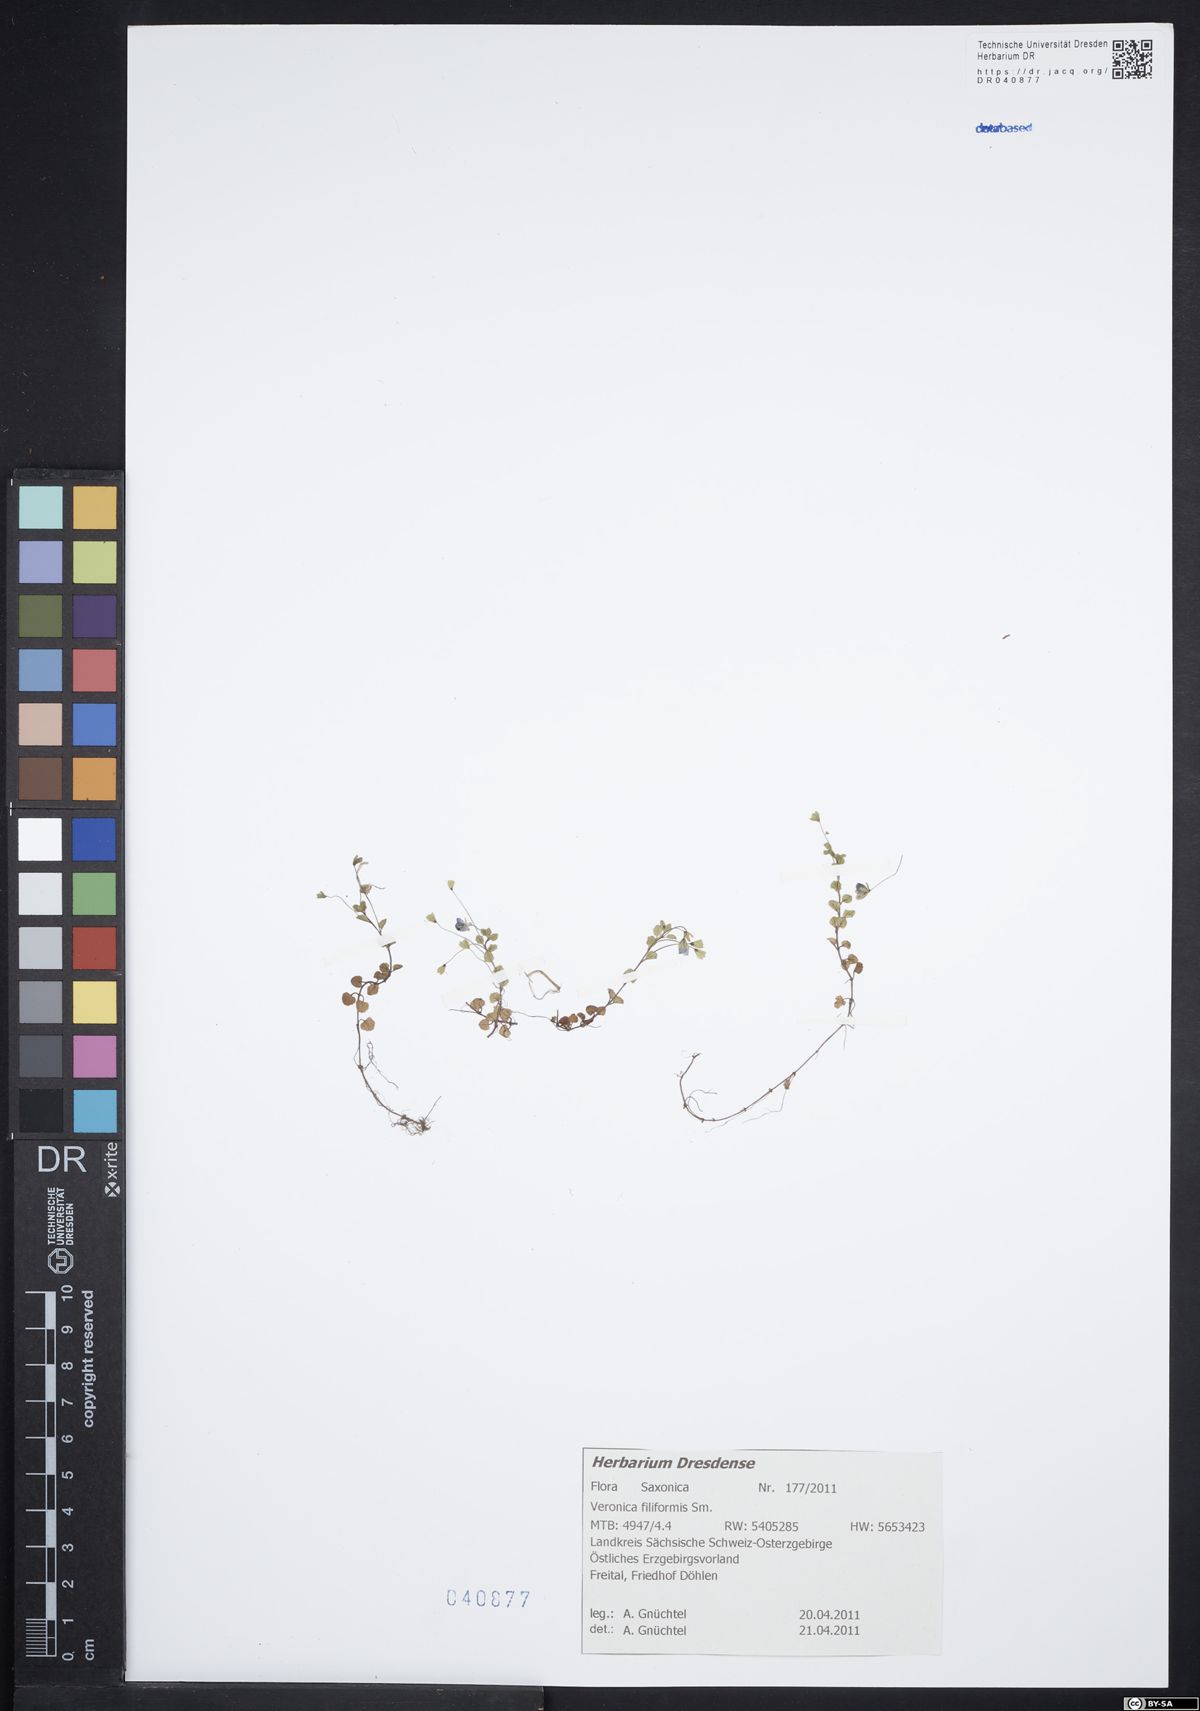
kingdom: Plantae
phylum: Tracheophyta
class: Magnoliopsida
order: Lamiales
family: Plantaginaceae
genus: Veronica
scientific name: Veronica filiformis
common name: Slender speedwell
